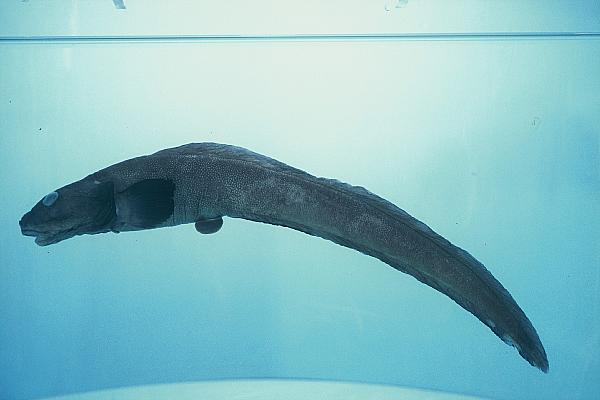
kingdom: Animalia
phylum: Chordata
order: Perciformes
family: Zoarcidae
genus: Lycodes
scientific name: Lycodes terraenovae
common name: Newfoundland eelpout
